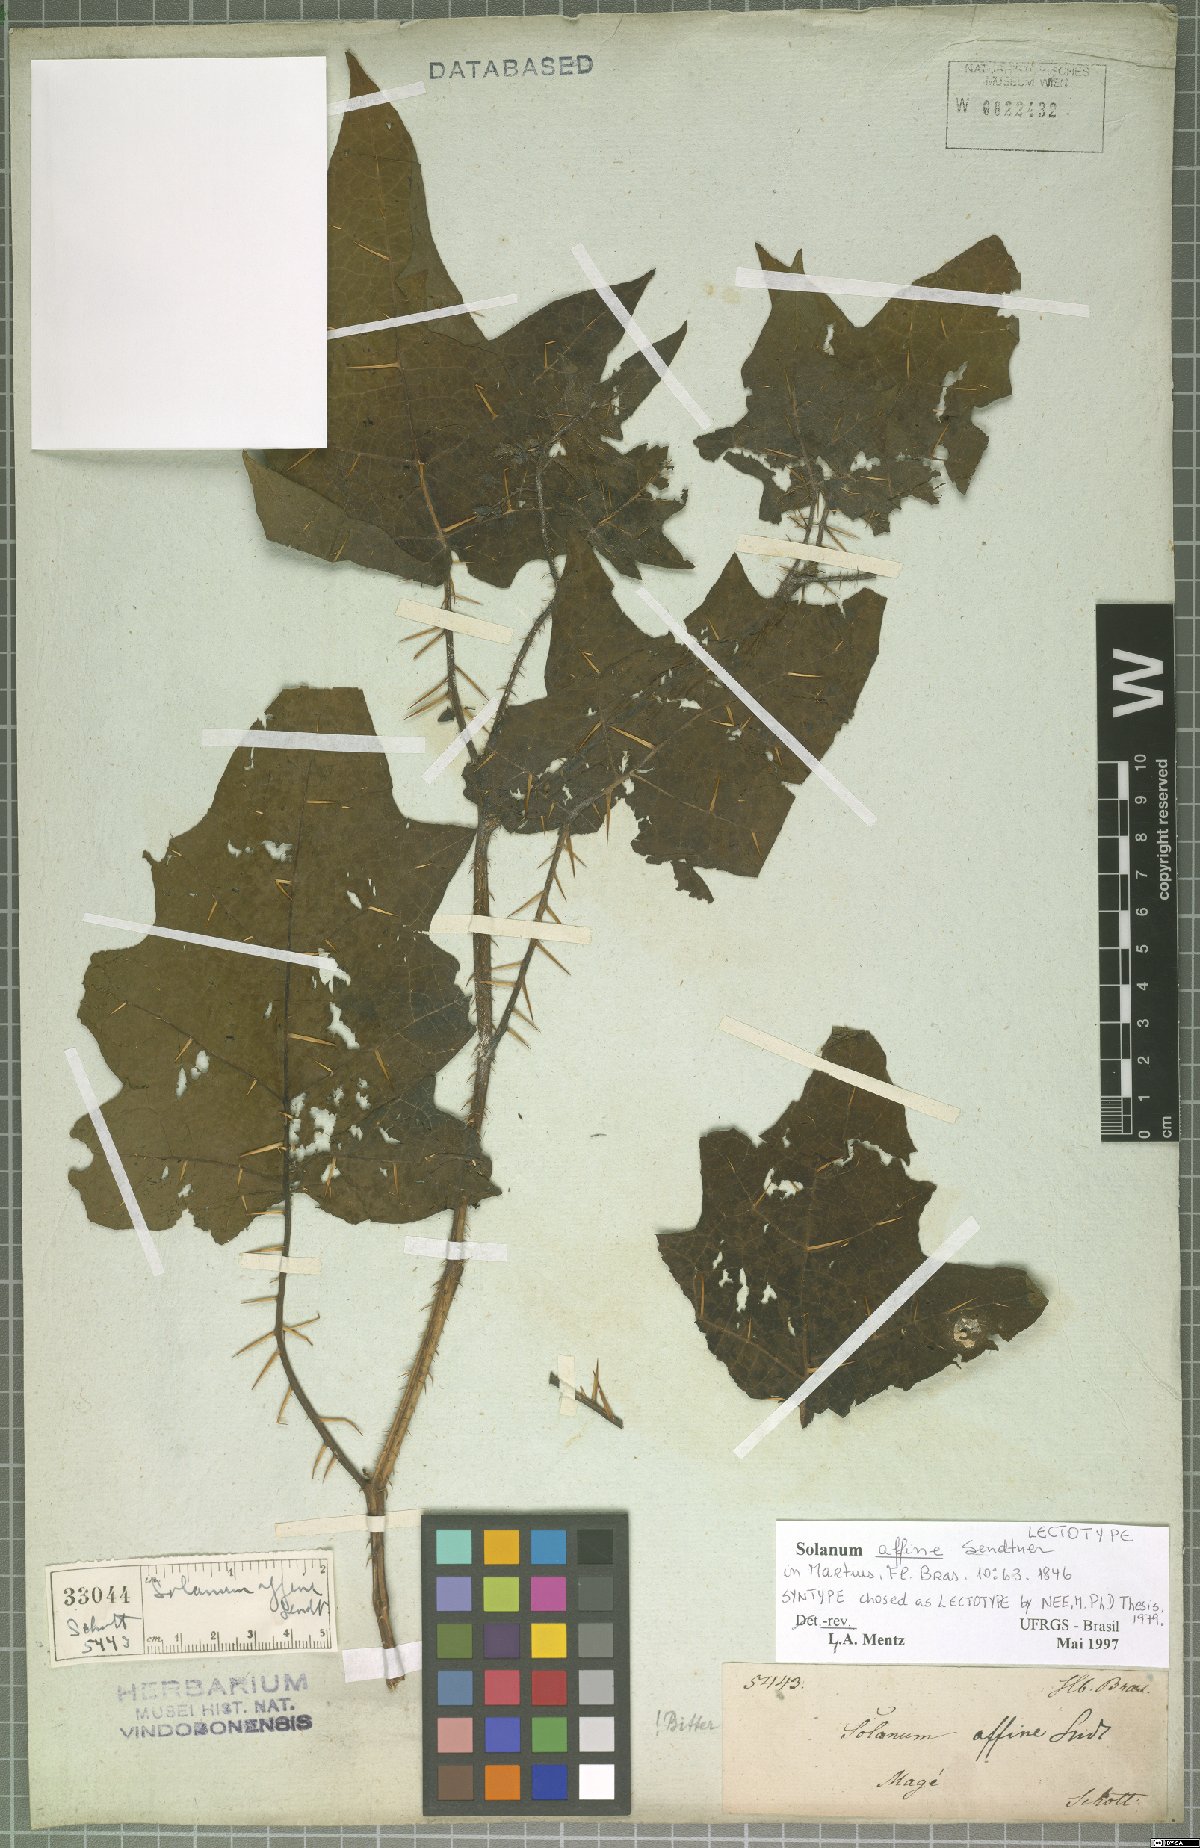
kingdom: Plantae
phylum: Tracheophyta
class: Magnoliopsida
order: Solanales
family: Solanaceae
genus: Solanum
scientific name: Solanum affine
